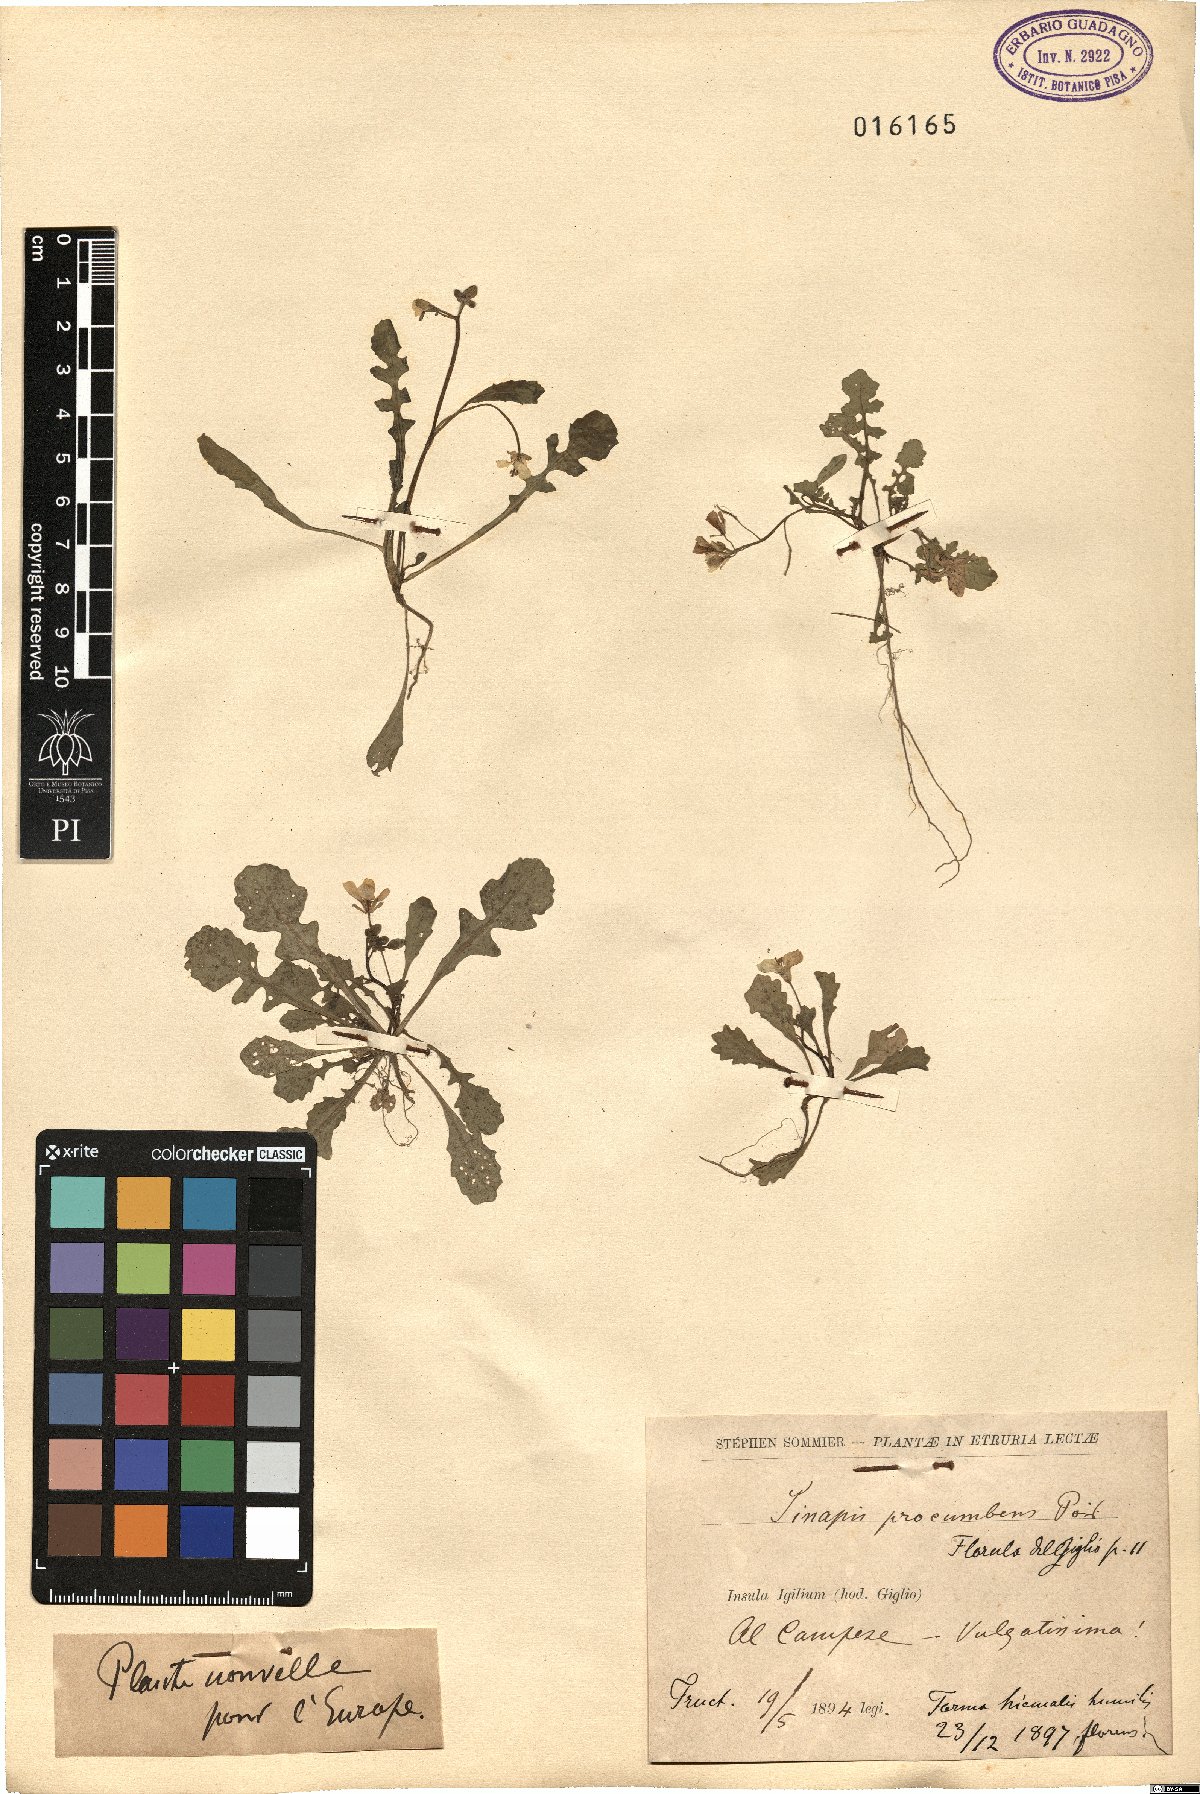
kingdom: Plantae
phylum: Tracheophyta
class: Magnoliopsida
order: Brassicales
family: Brassicaceae
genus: Brassica
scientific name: Brassica procumbens
